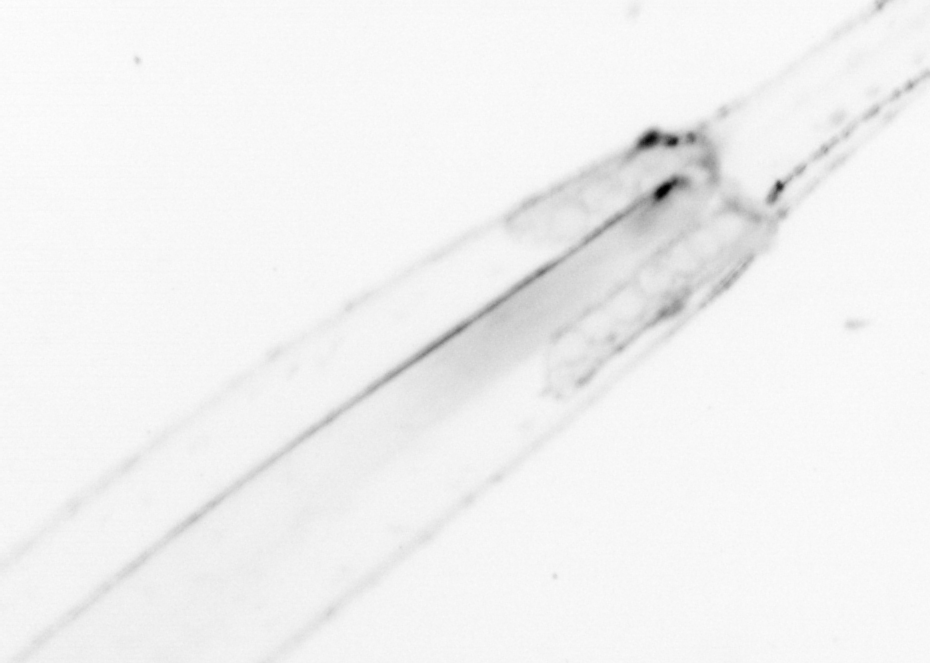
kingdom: Animalia
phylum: Chaetognatha
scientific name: Chaetognatha
